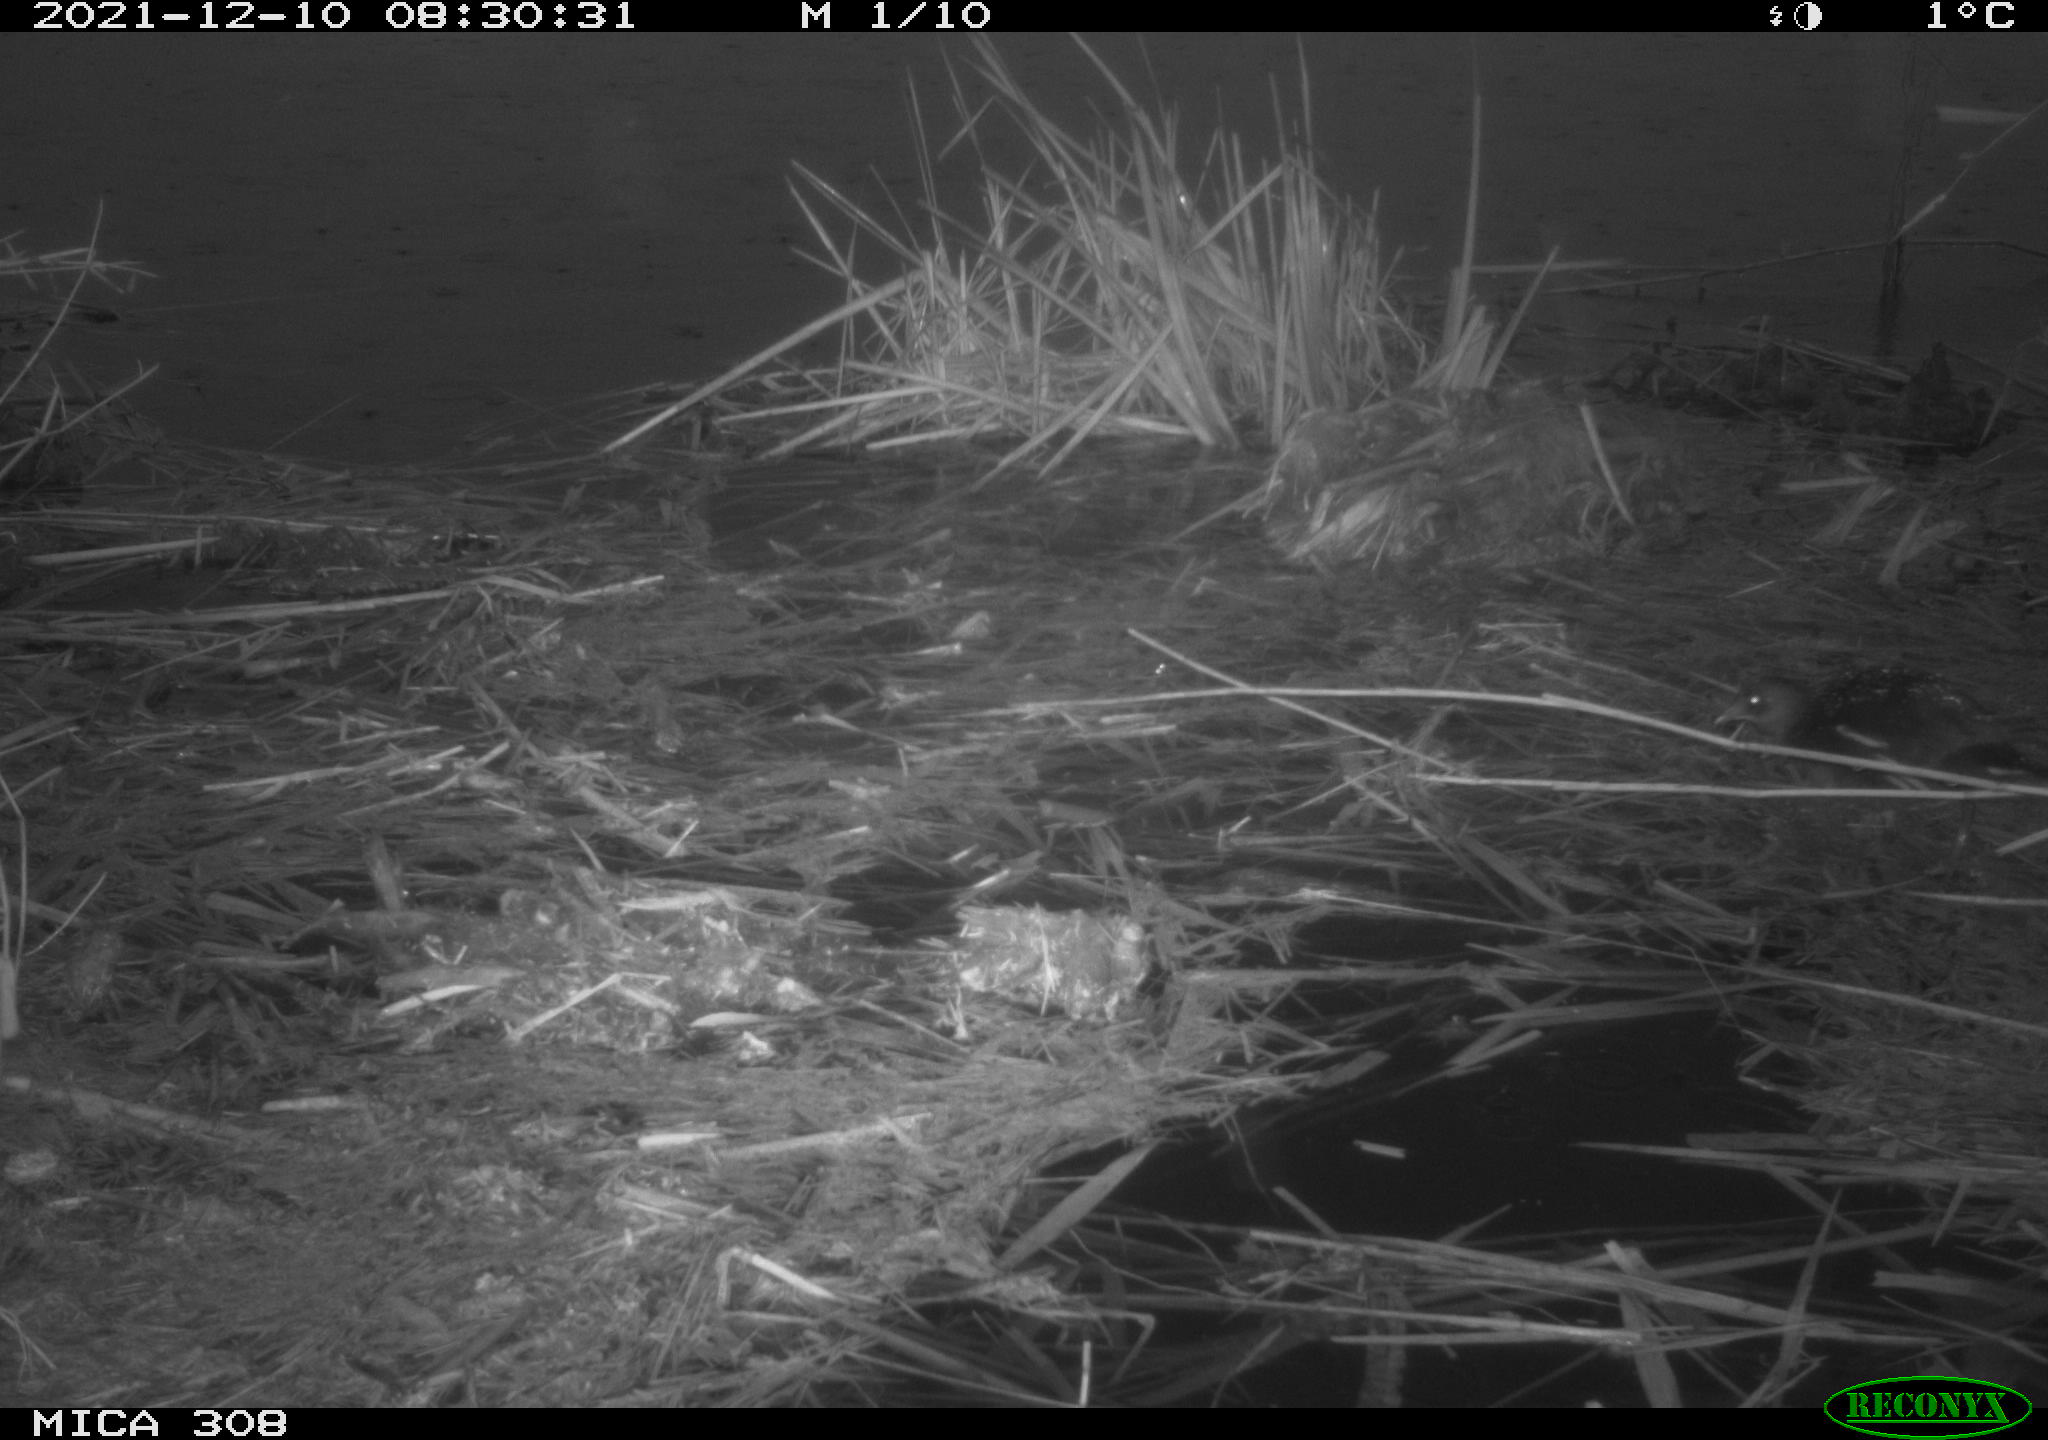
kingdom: Animalia
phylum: Chordata
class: Aves
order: Gruiformes
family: Rallidae
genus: Gallinula
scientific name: Gallinula chloropus
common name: Common moorhen
